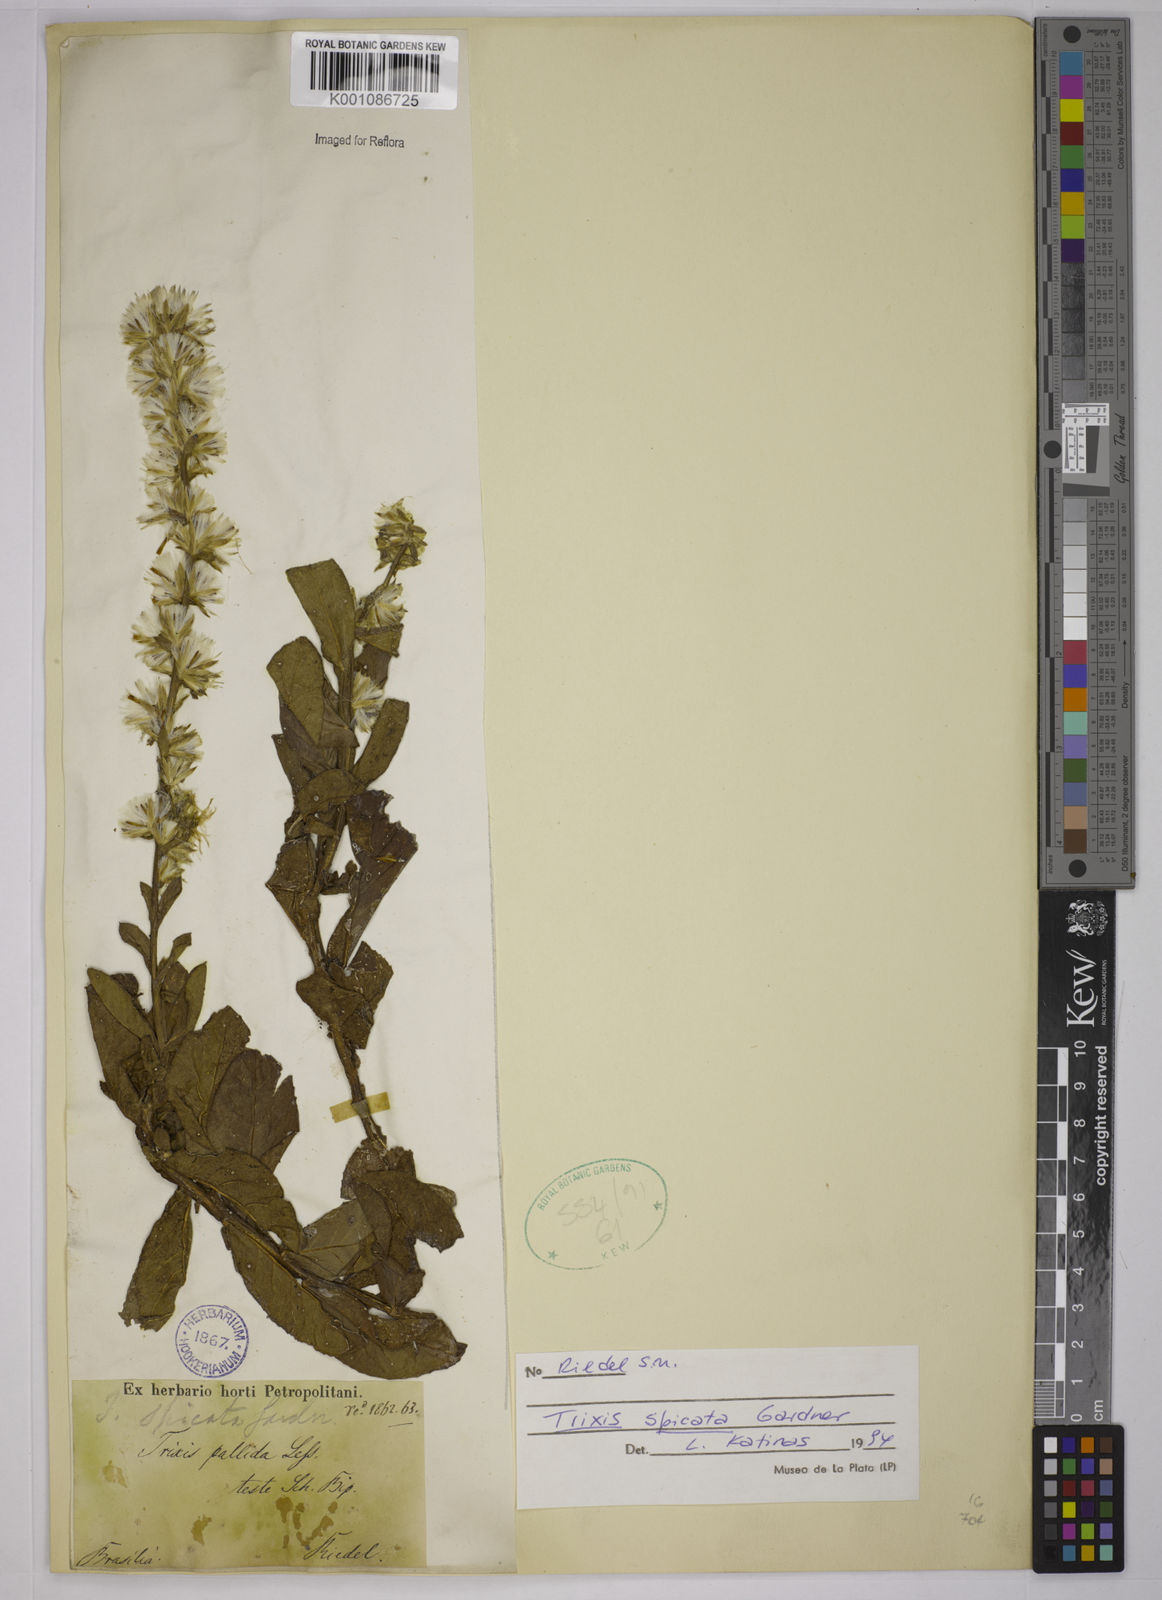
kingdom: Plantae
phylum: Tracheophyta
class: Magnoliopsida
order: Asterales
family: Asteraceae
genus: Trixis
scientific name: Trixis spicata
